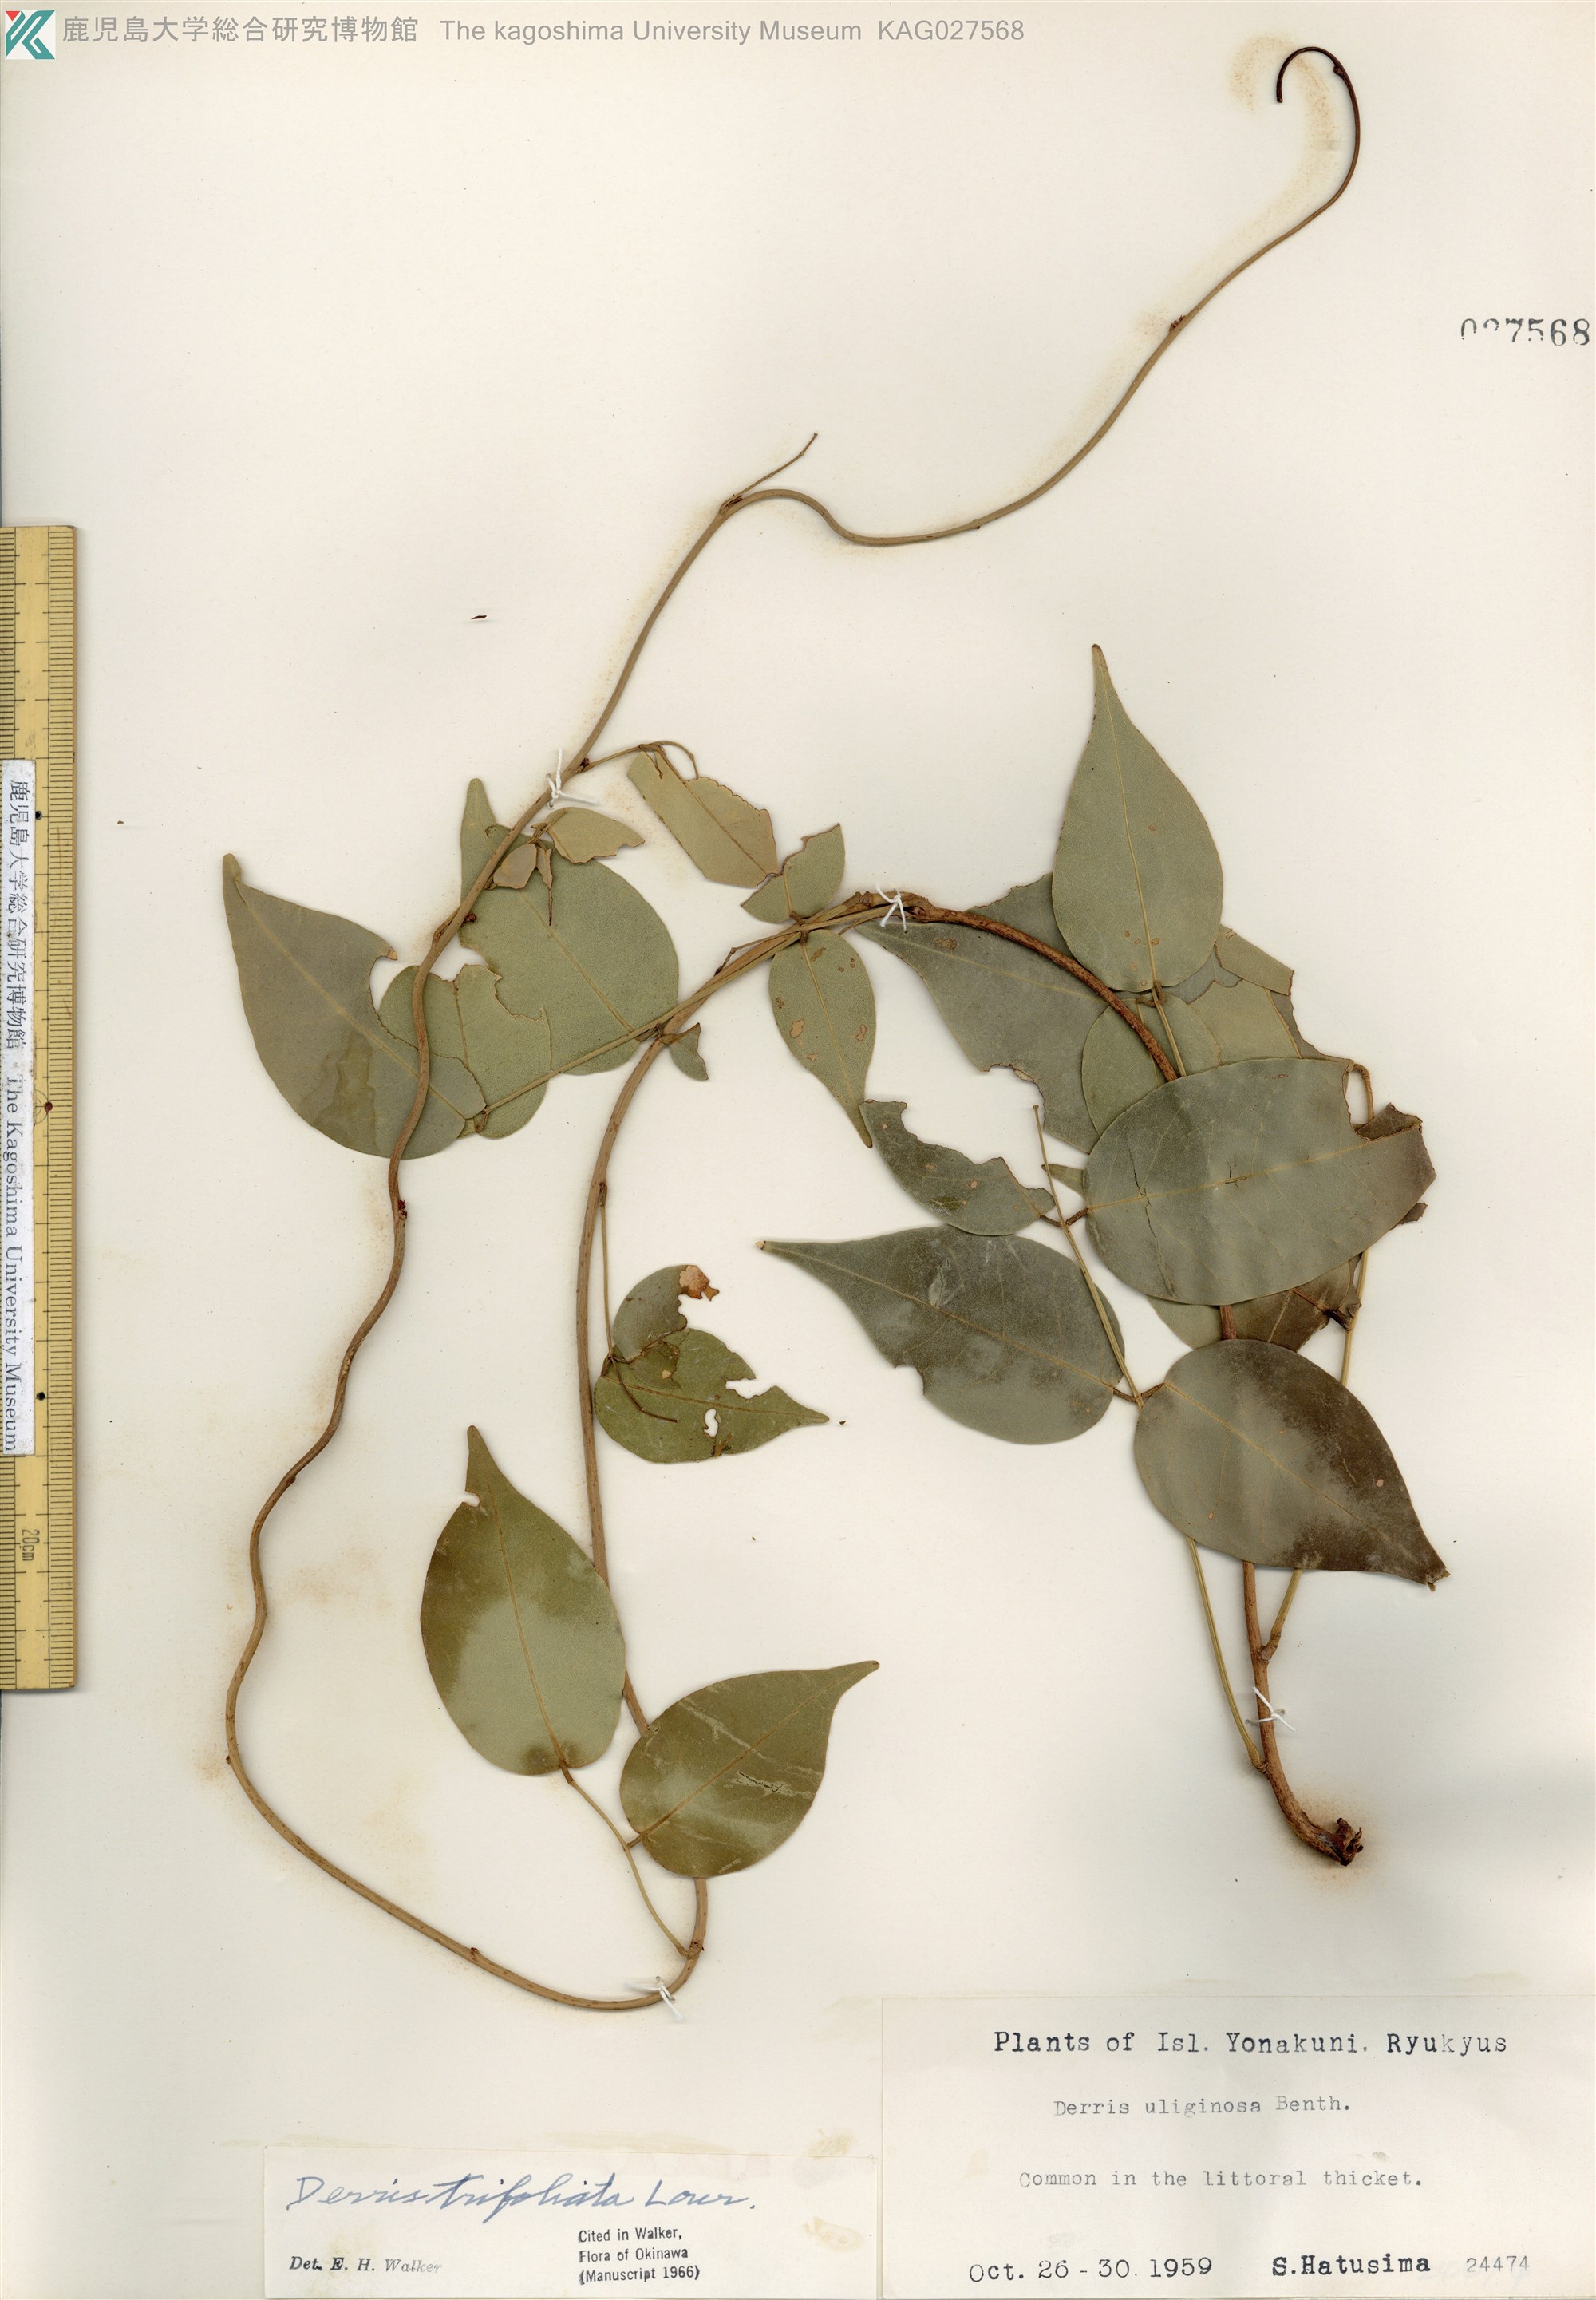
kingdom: Plantae
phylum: Tracheophyta
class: Magnoliopsida
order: Fabales
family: Fabaceae
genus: Derris
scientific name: Derris trifoliata
